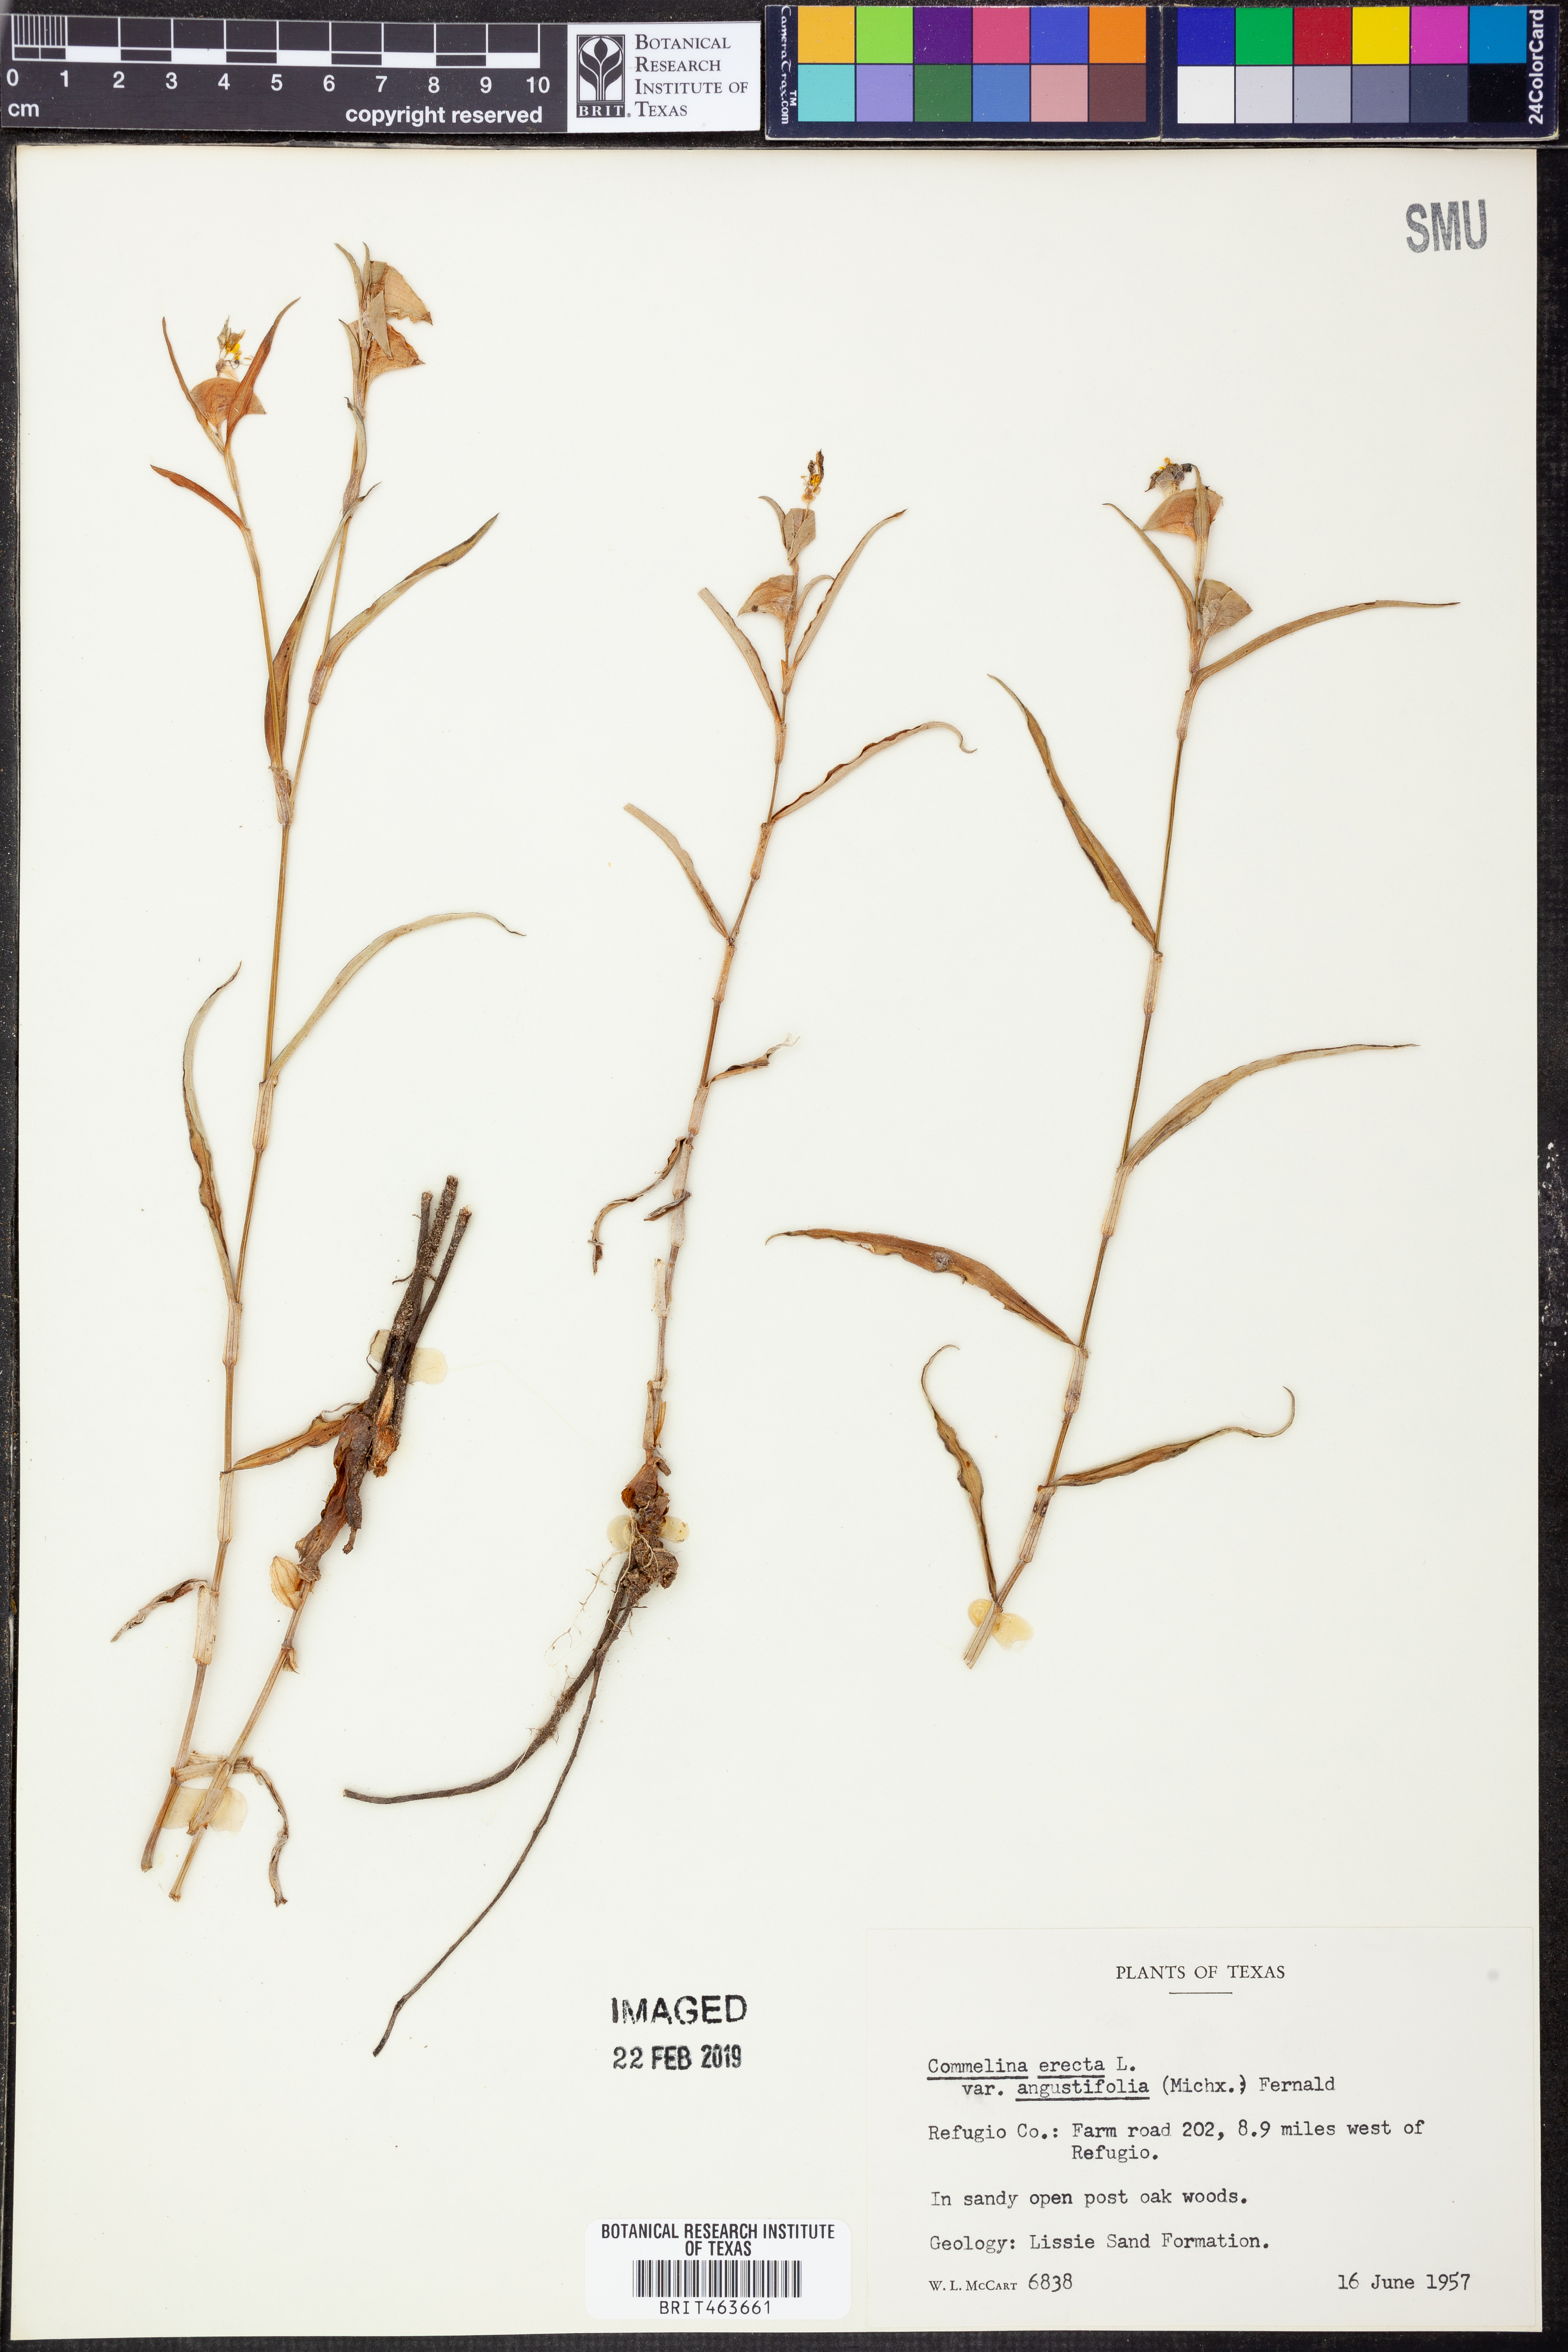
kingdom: Plantae
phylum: Tracheophyta
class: Liliopsida
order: Commelinales
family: Commelinaceae
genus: Commelina
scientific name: Commelina erecta
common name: Blousel blommetjie
